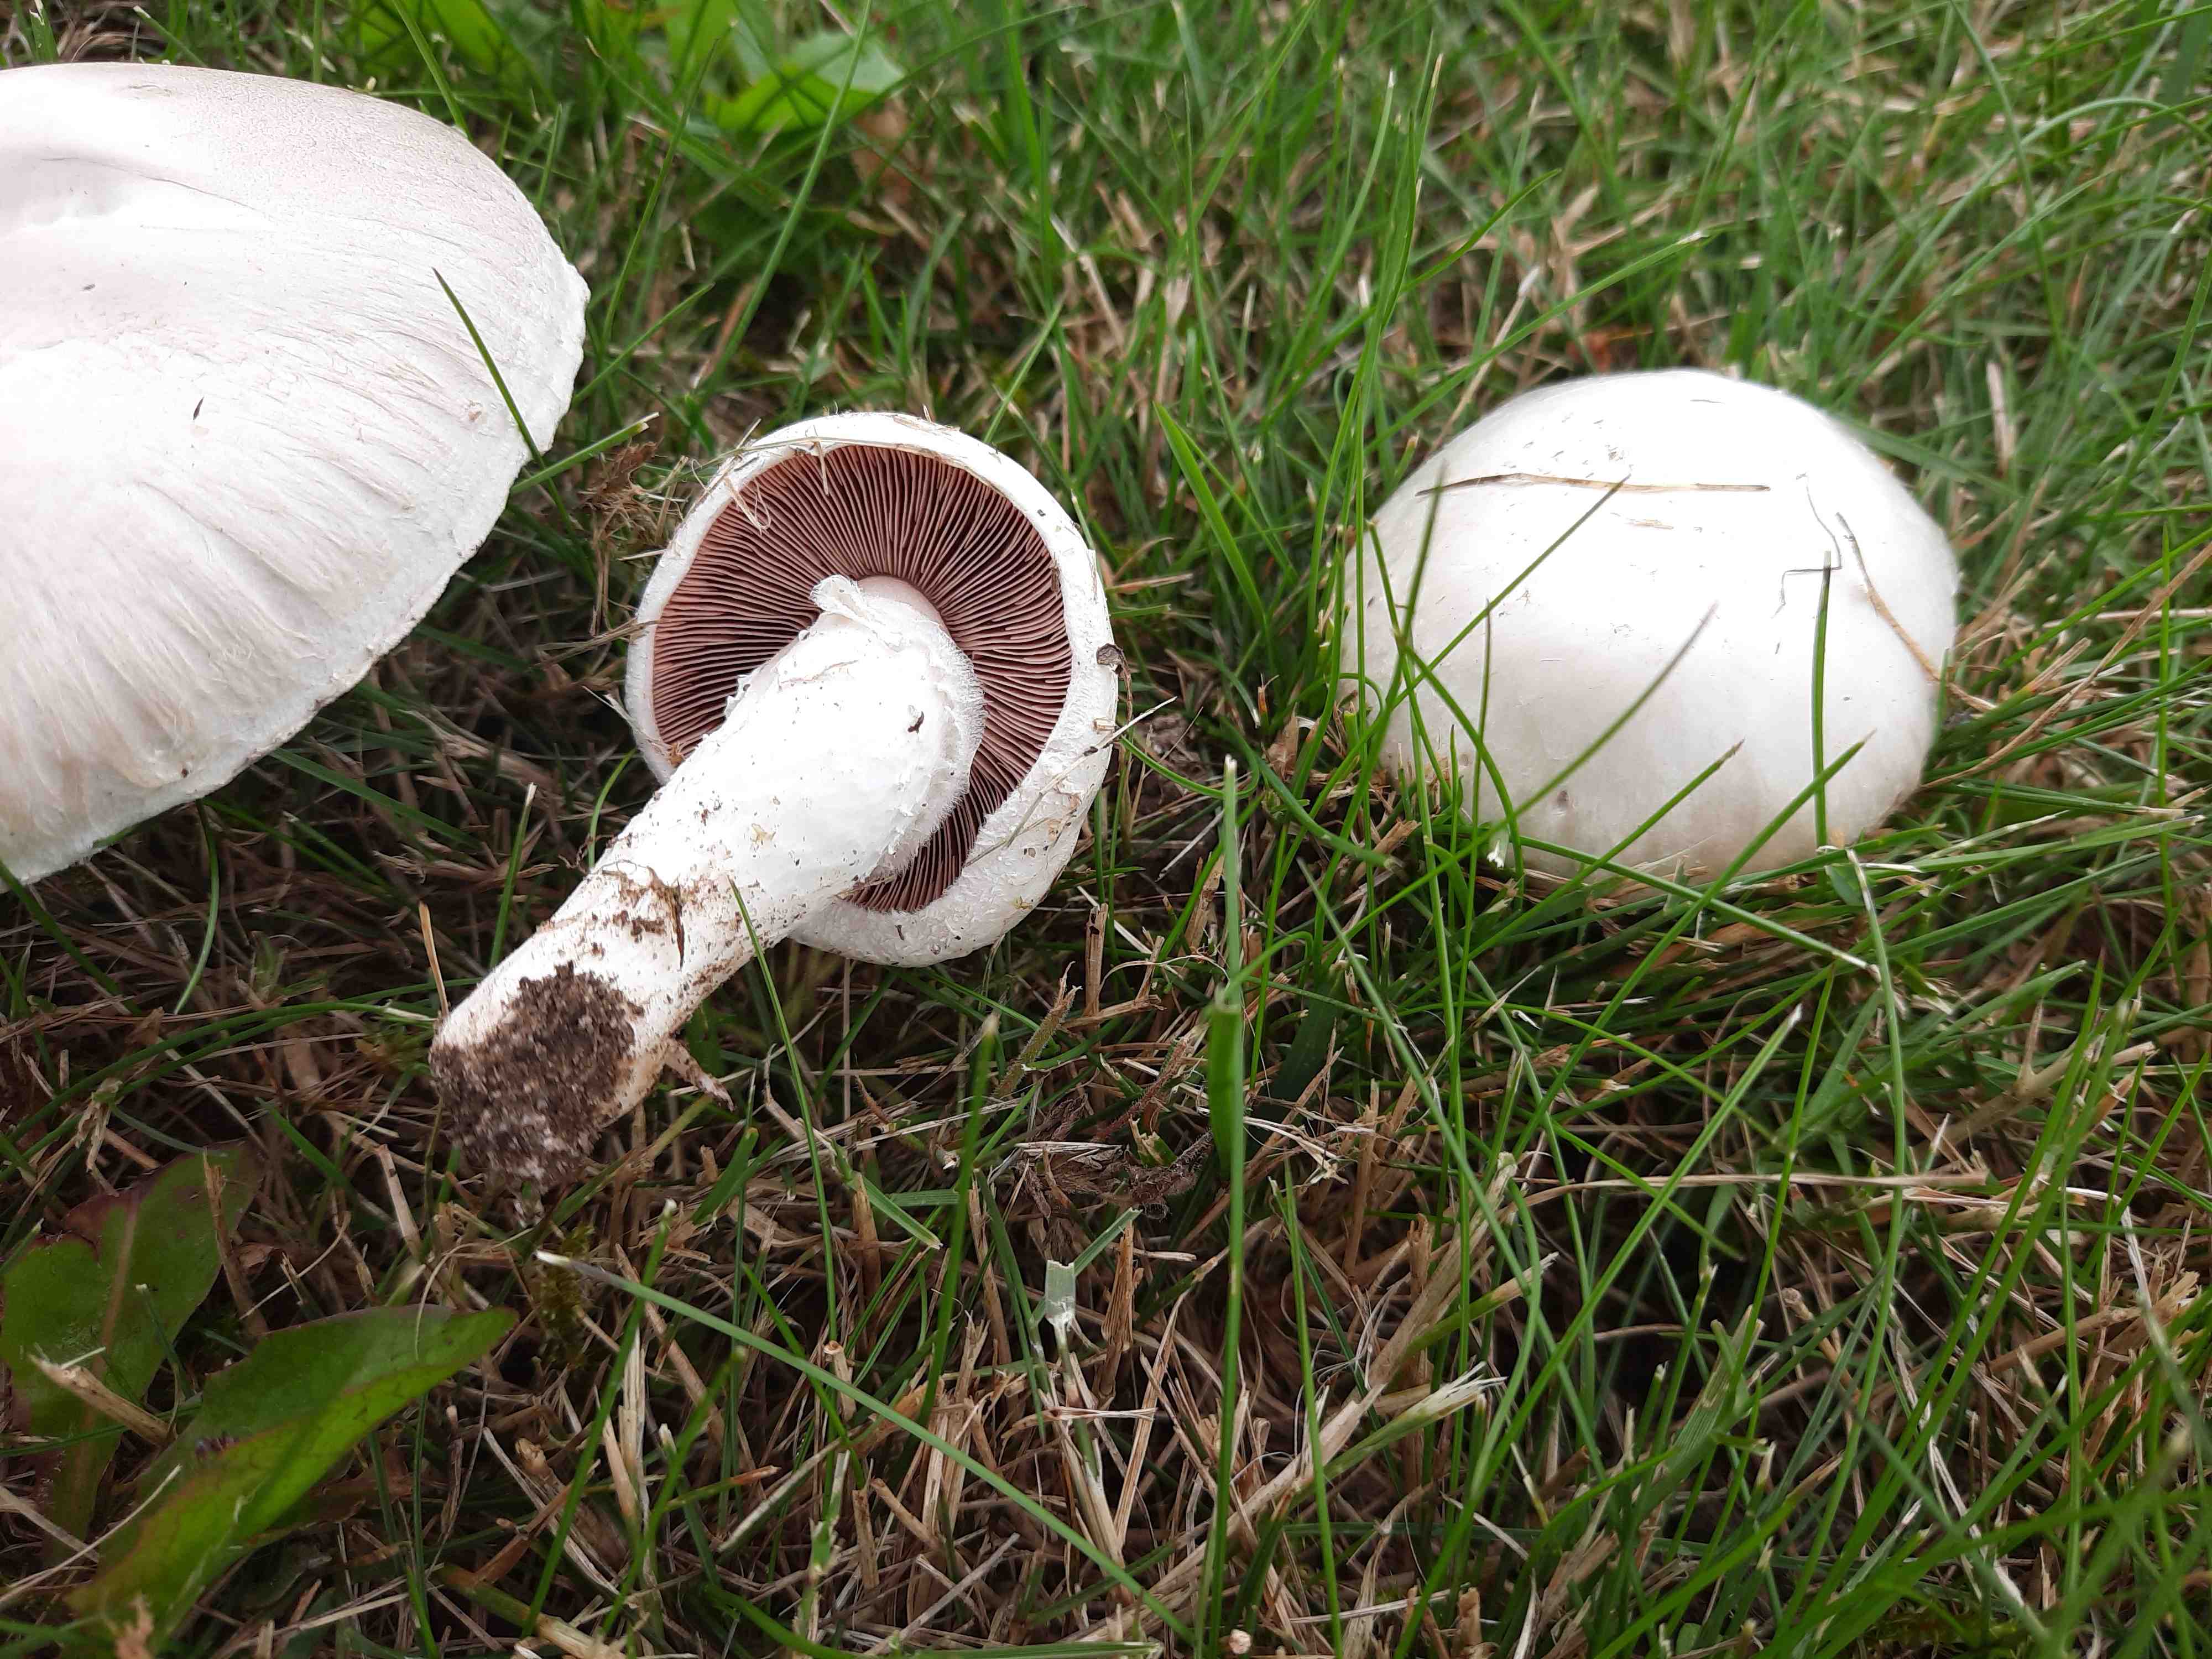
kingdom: Fungi
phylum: Basidiomycota
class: Agaricomycetes
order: Agaricales
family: Agaricaceae
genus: Agaricus
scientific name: Agaricus campestris
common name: mark-champignon
